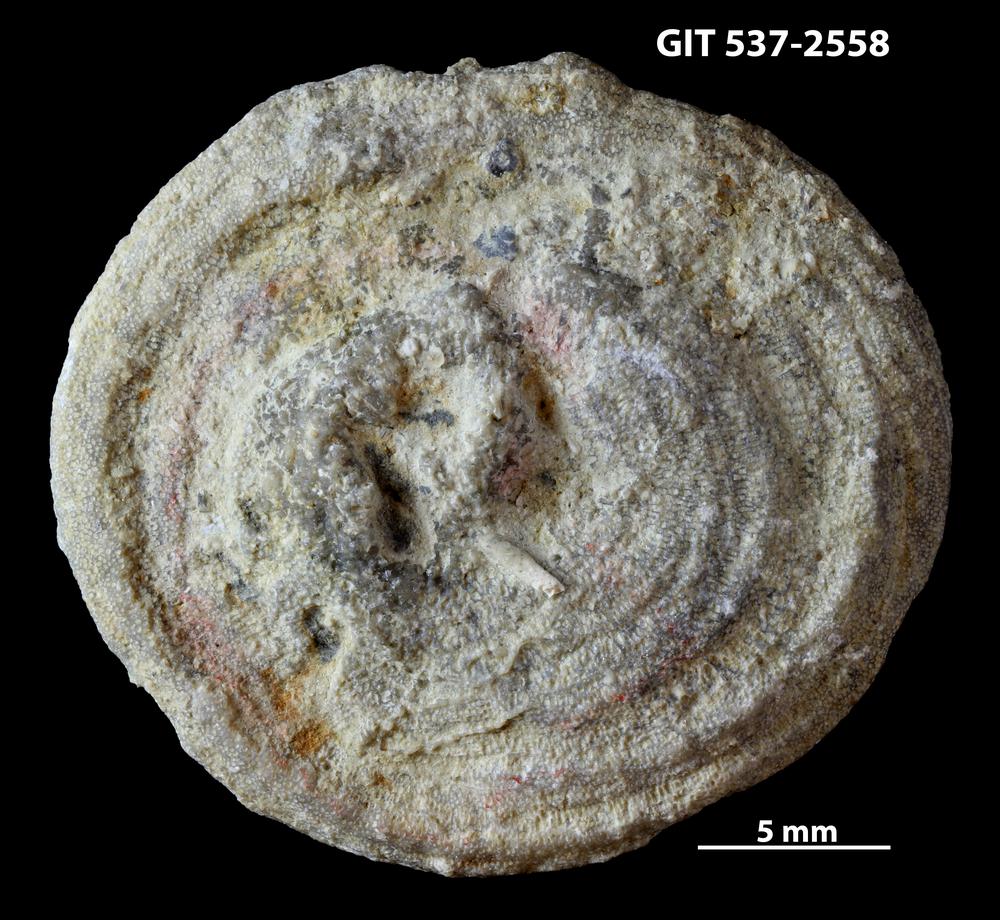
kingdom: Animalia
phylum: Bryozoa
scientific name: Bryozoa
